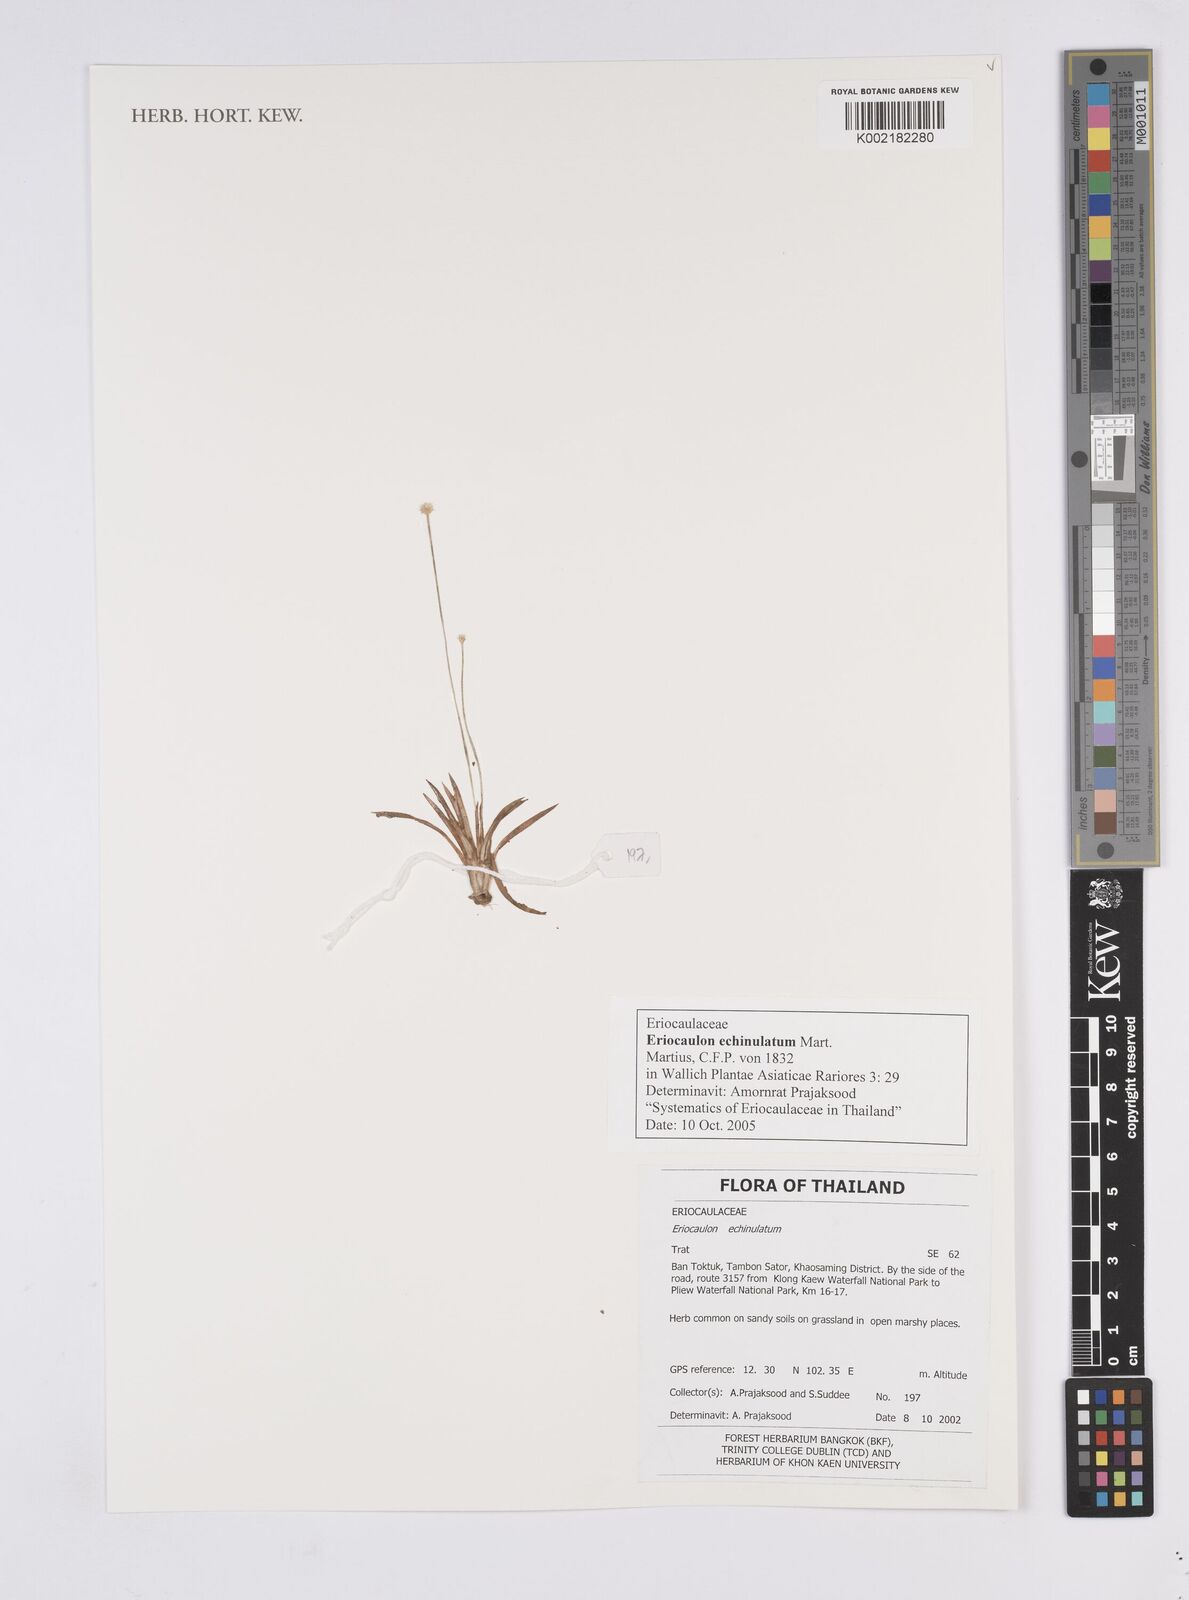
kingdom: Plantae
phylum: Tracheophyta
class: Liliopsida
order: Poales
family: Eriocaulaceae
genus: Eriocaulon
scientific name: Eriocaulon echinulatum
